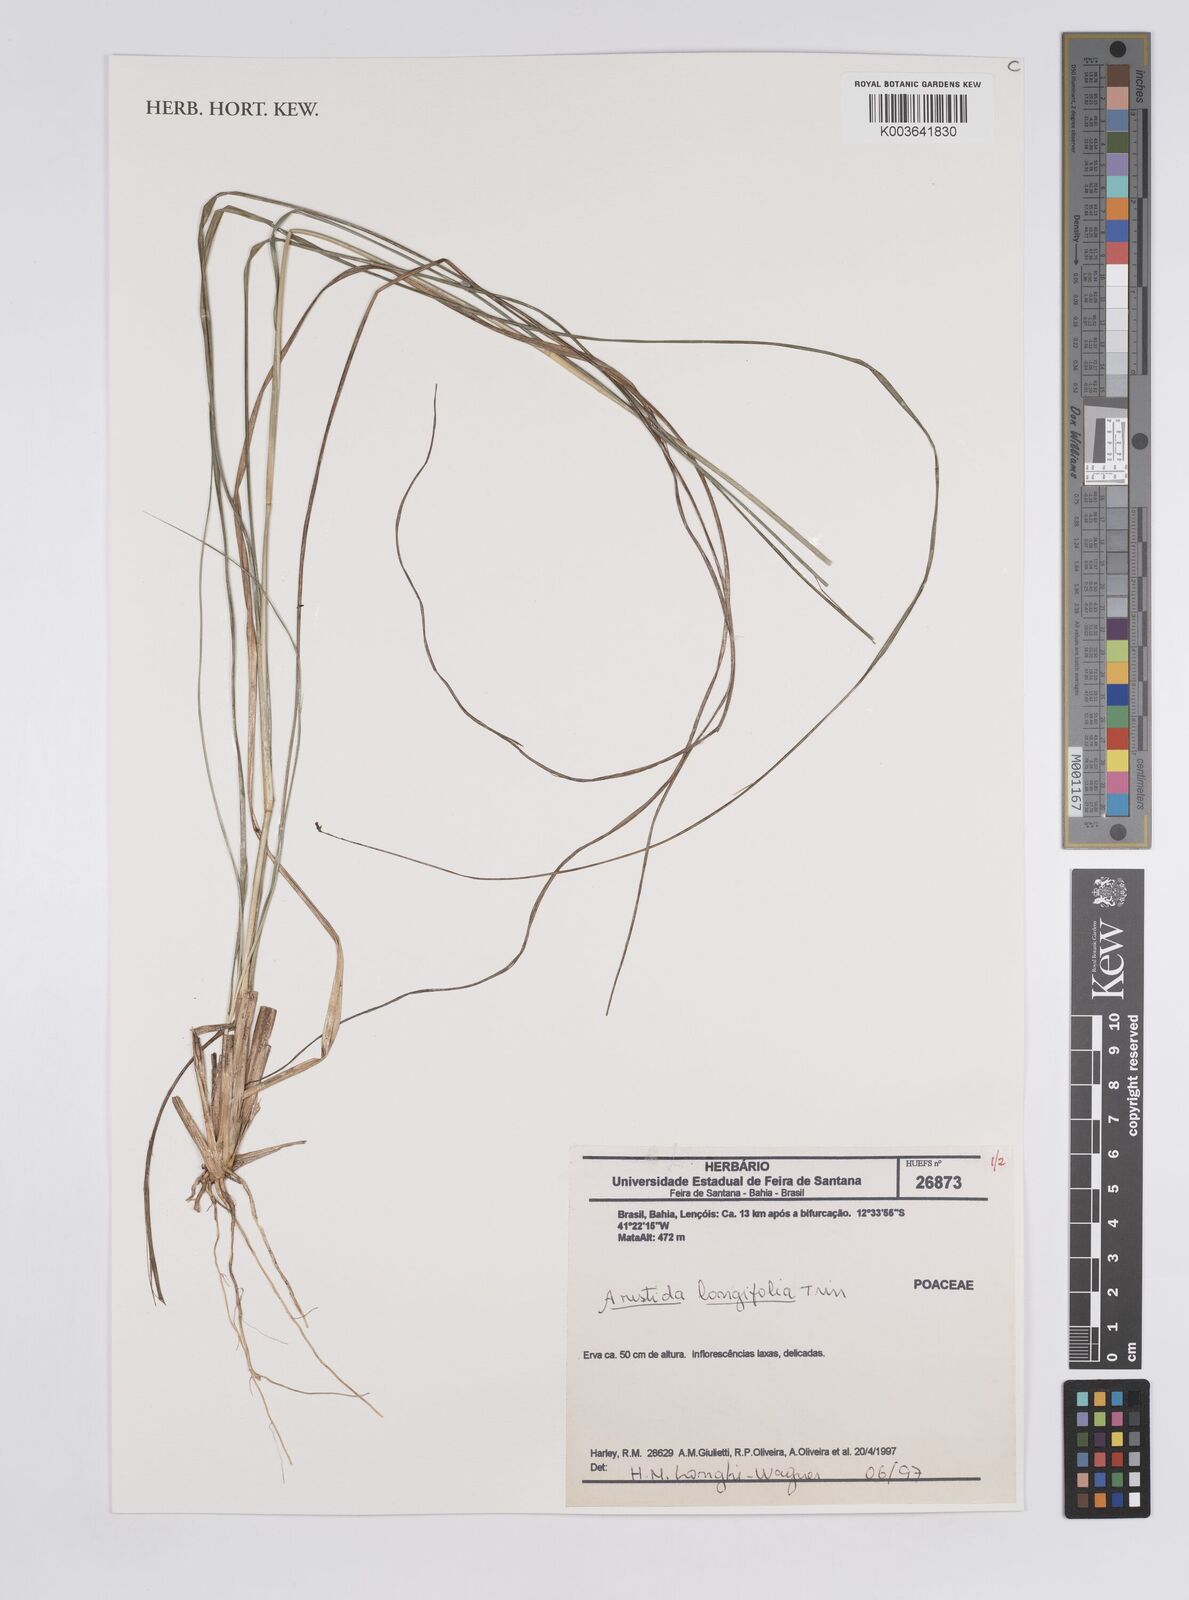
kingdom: Plantae
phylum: Tracheophyta
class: Liliopsida
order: Poales
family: Poaceae
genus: Aristida
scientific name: Aristida longifolia
